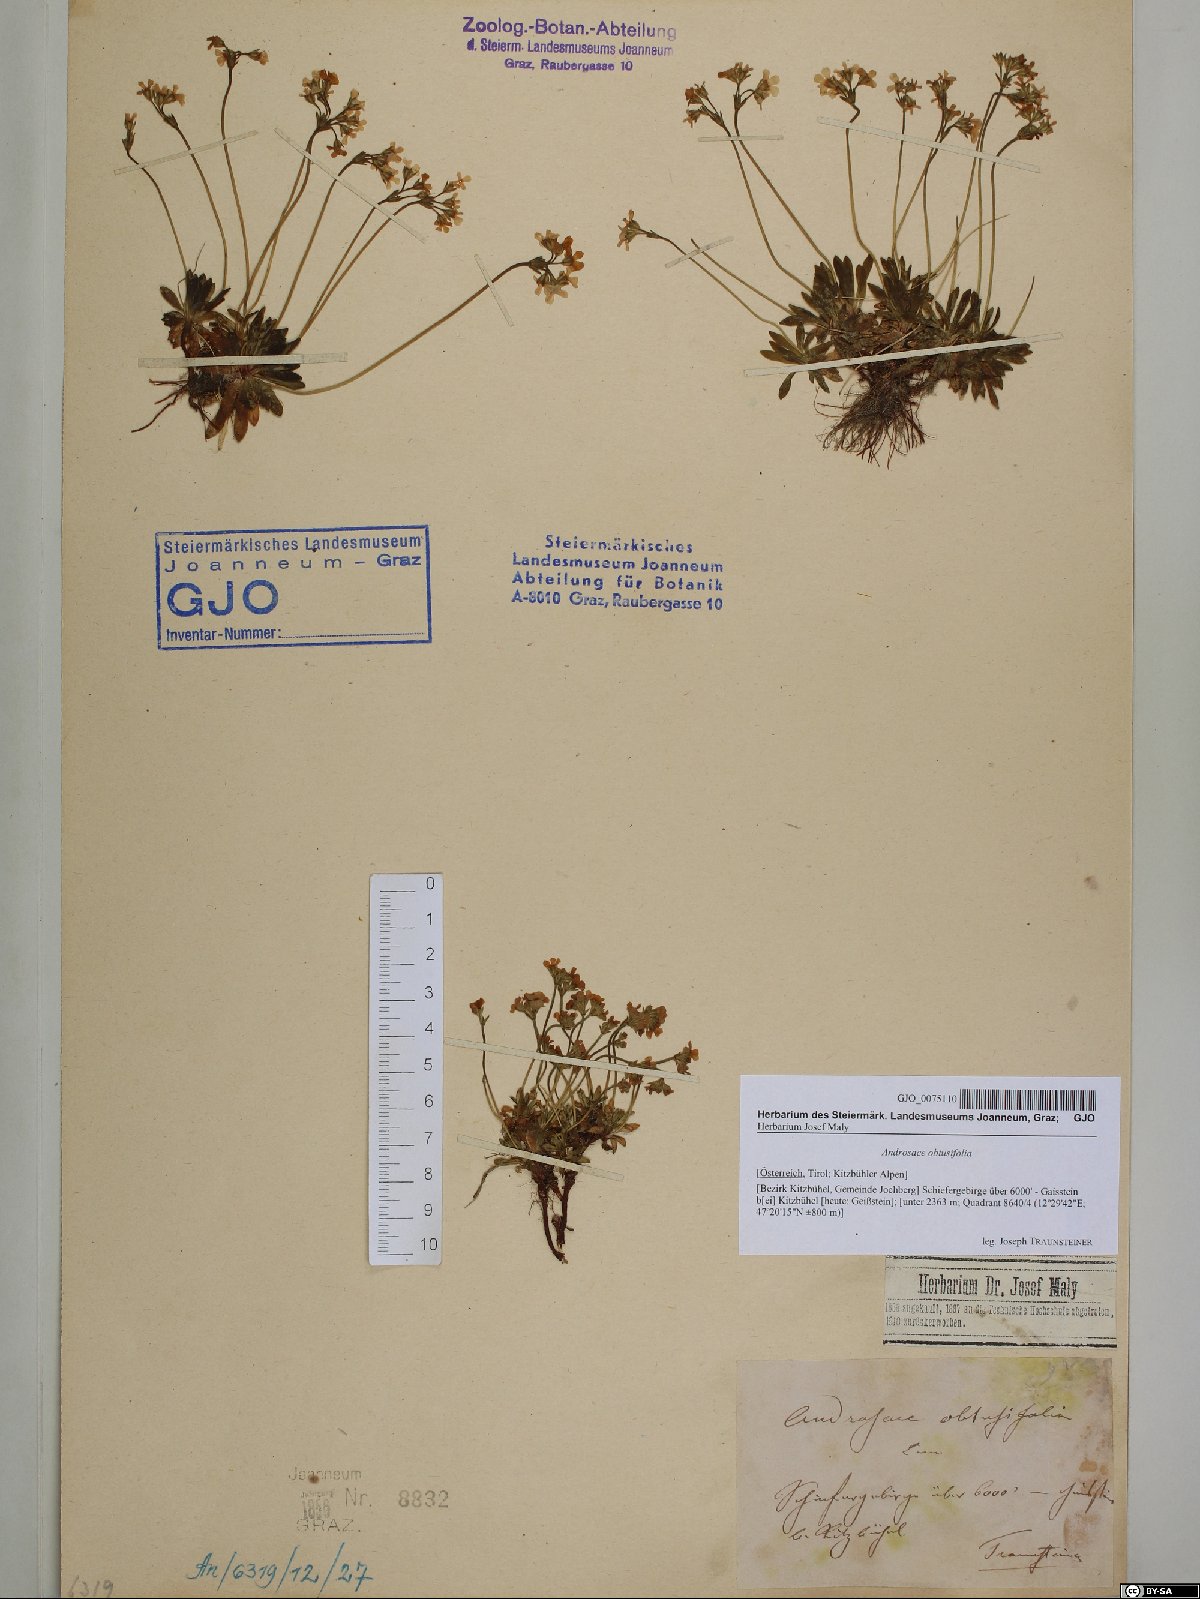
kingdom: Plantae
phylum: Tracheophyta
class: Magnoliopsida
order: Ericales
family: Primulaceae
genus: Androsace
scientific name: Androsace obtusifolia
